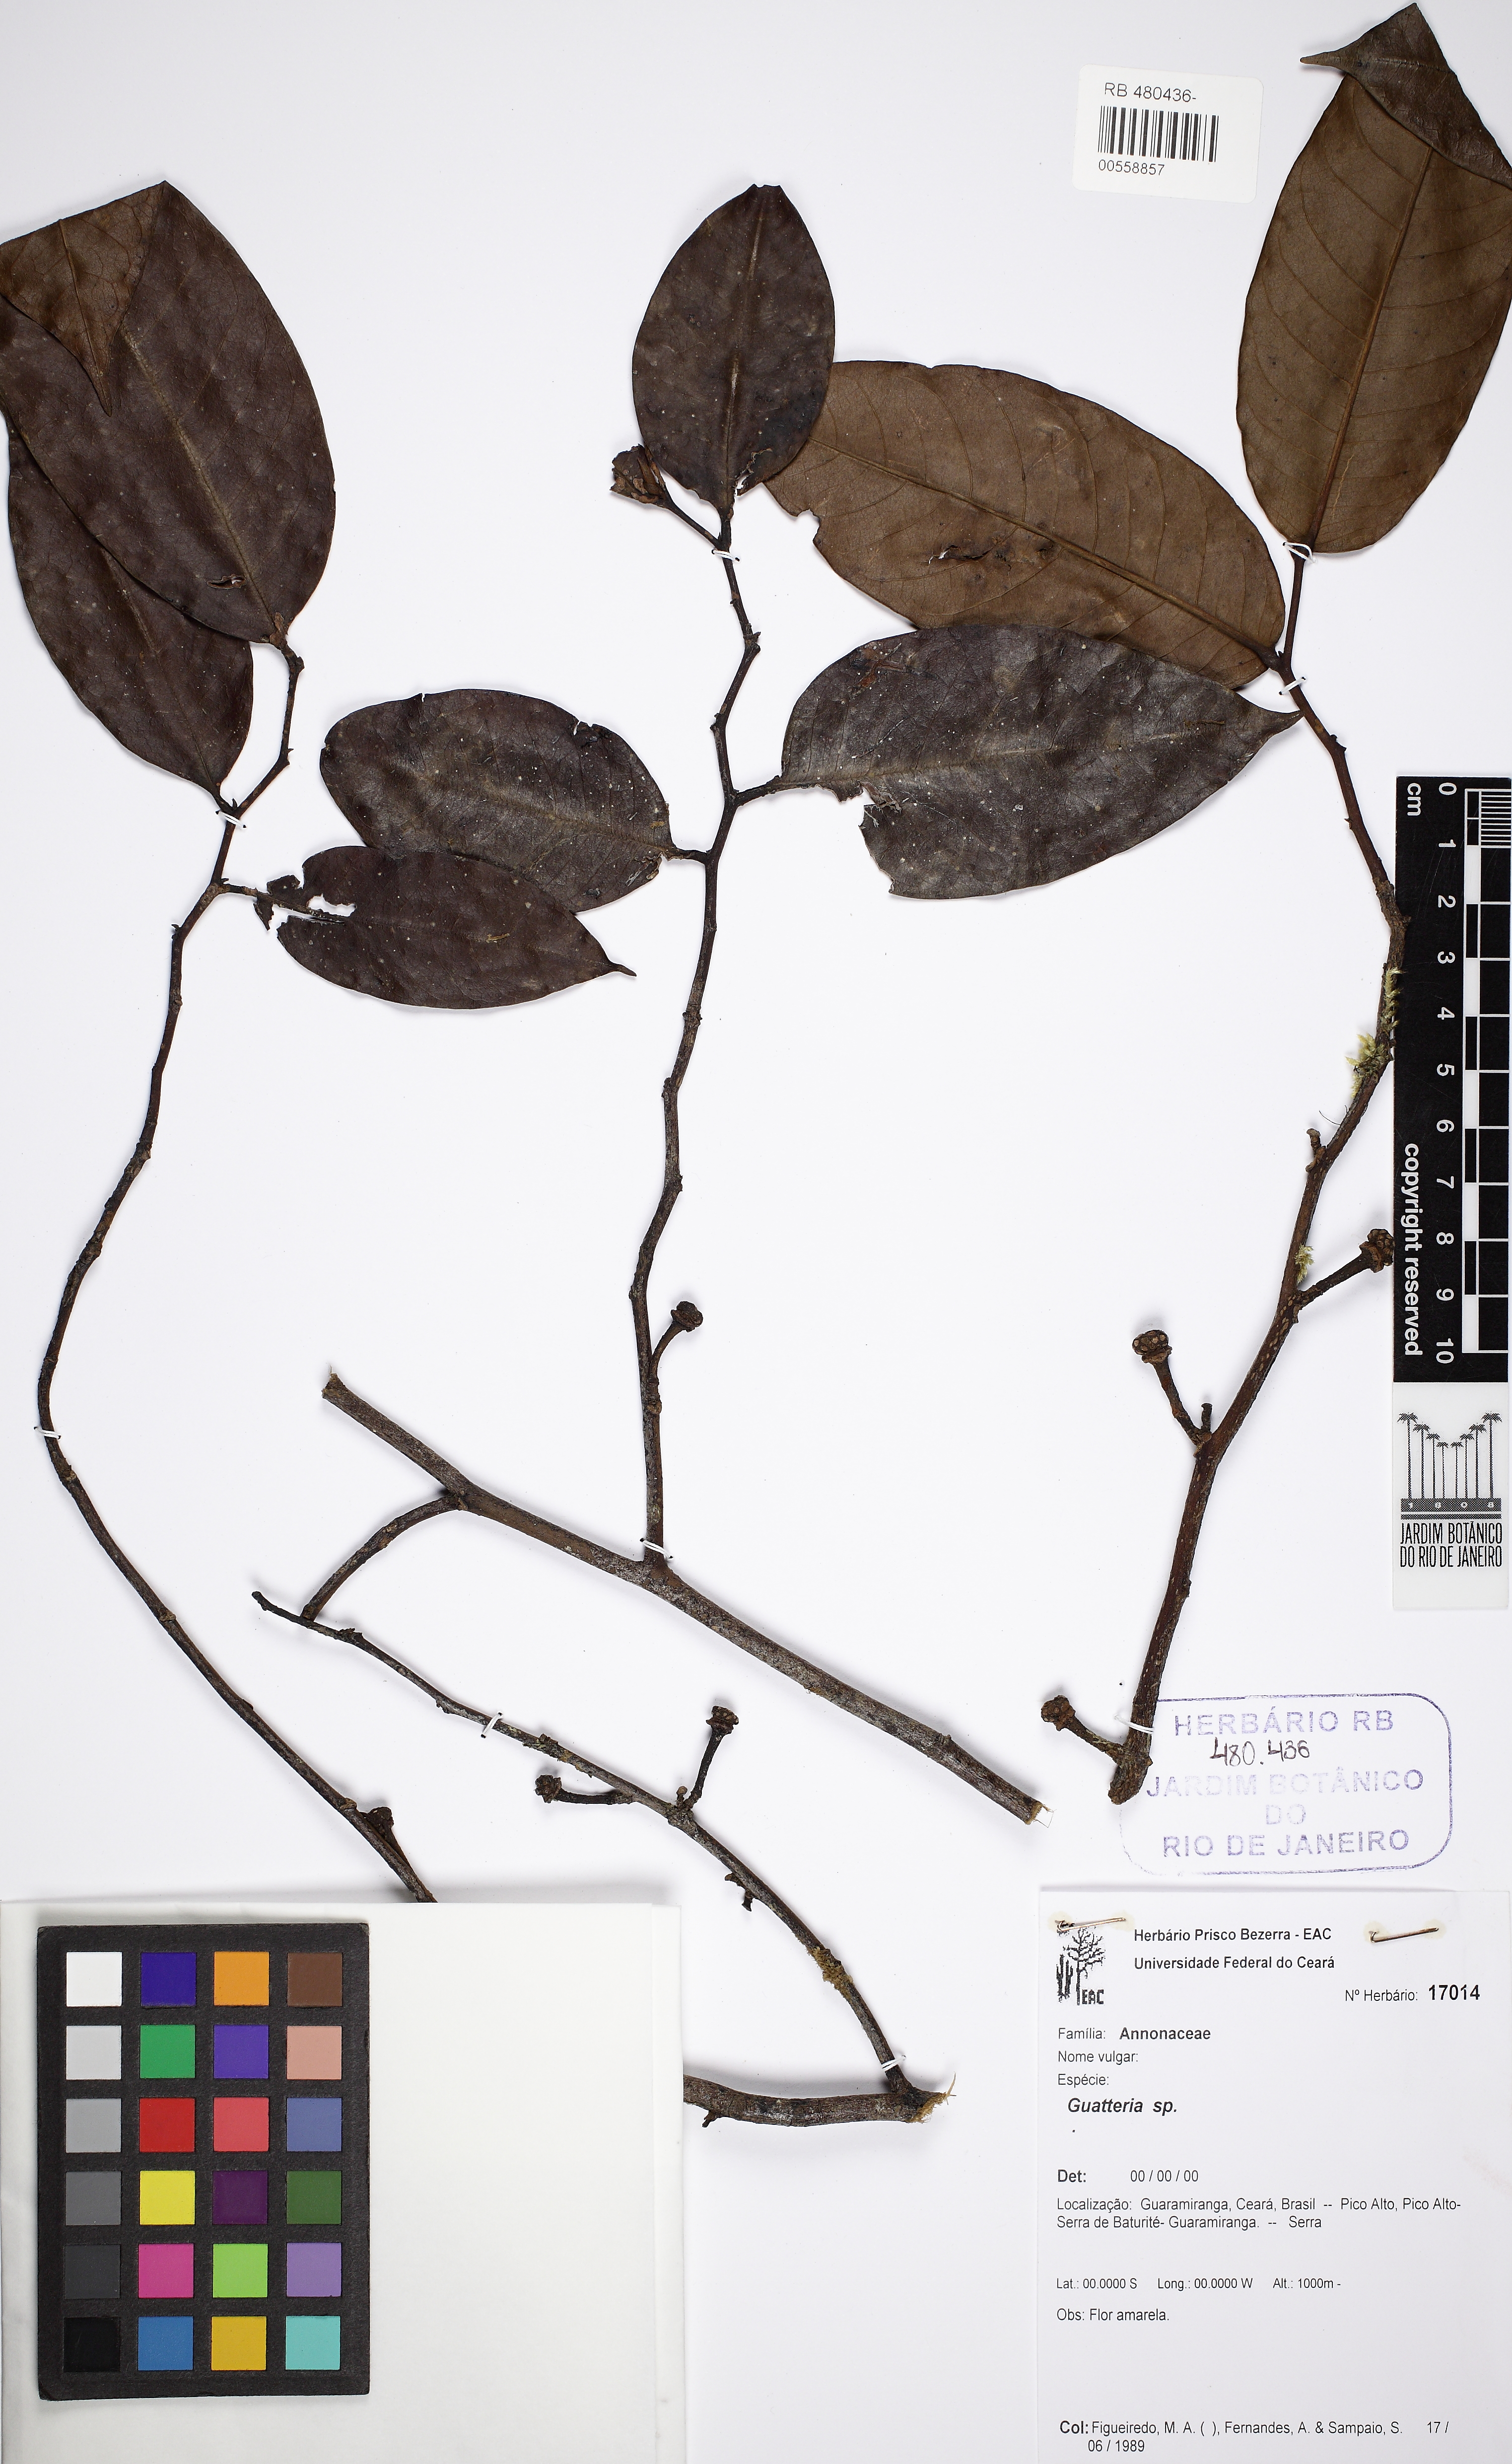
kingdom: Plantae
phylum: Tracheophyta
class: Magnoliopsida
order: Magnoliales
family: Annonaceae
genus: Guatteria
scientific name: Guatteria
